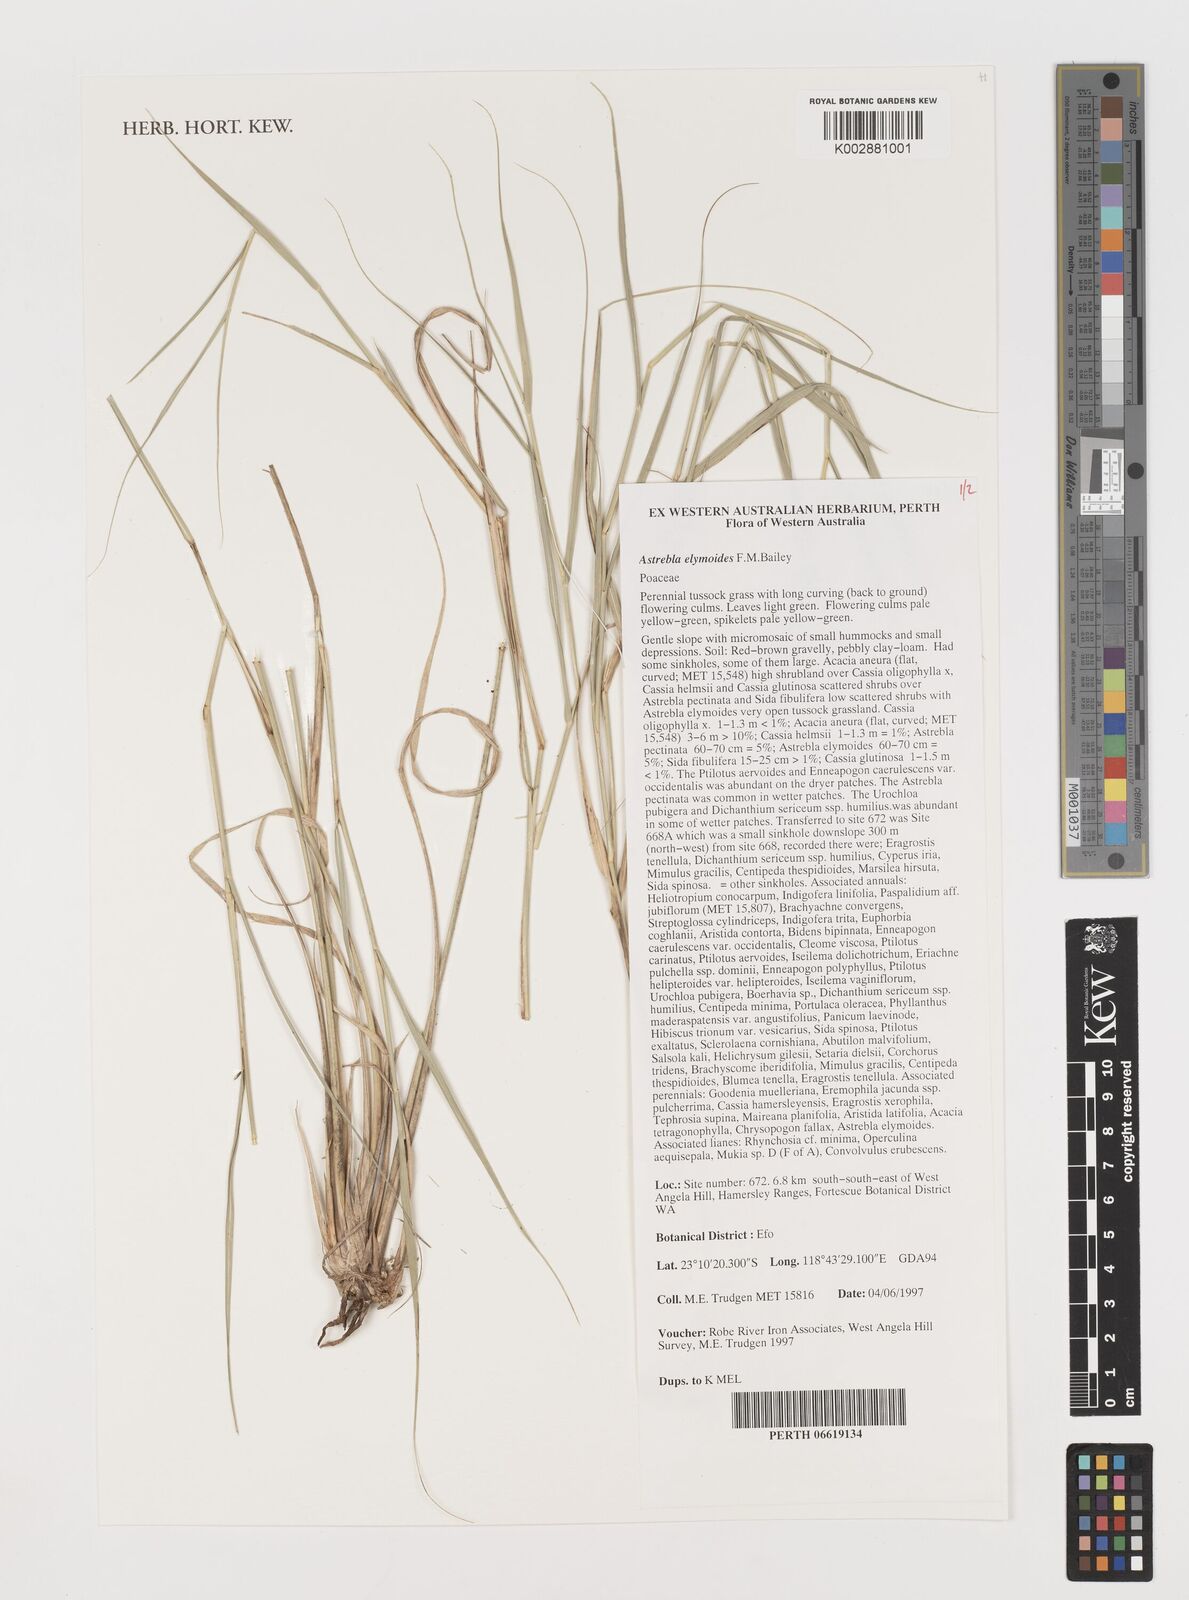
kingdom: Plantae
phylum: Tracheophyta
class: Liliopsida
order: Poales
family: Poaceae
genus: Astrebla
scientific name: Astrebla elymoides
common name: Hoop mitchell grass
